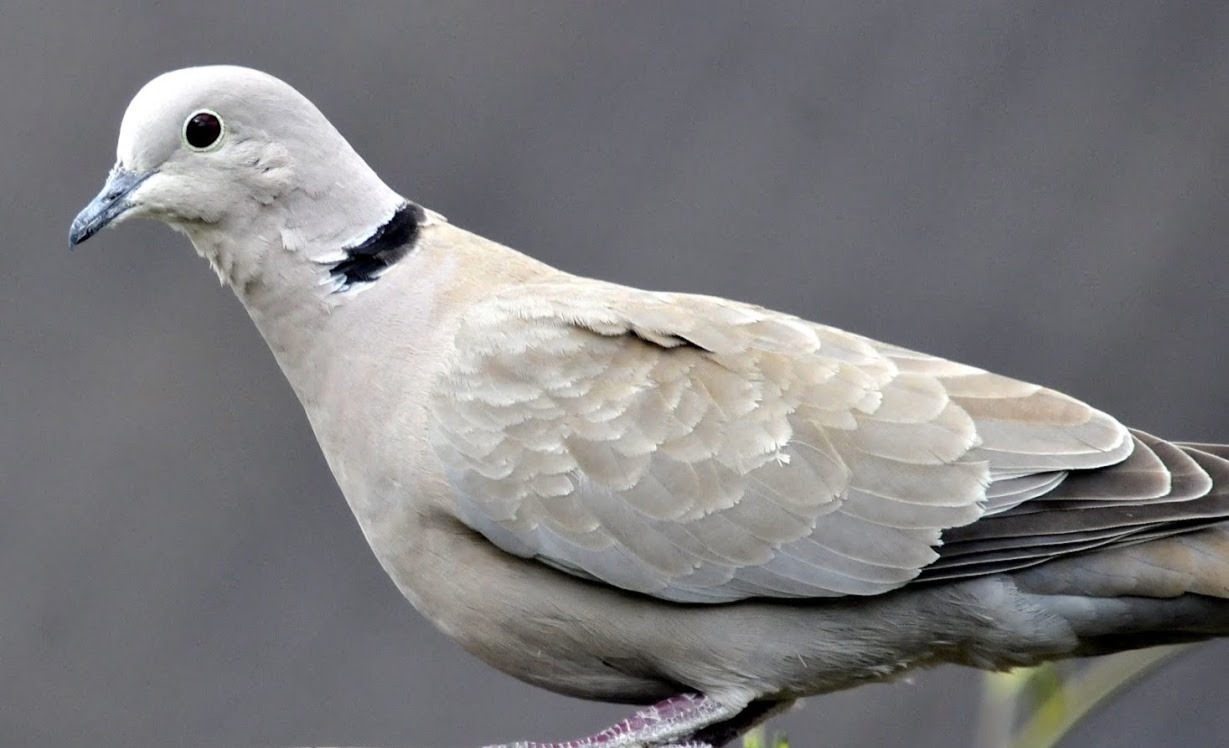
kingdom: Animalia
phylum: Chordata
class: Aves
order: Columbiformes
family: Columbidae
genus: Streptopelia
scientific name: Streptopelia decaocto
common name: Tyrkerdue
